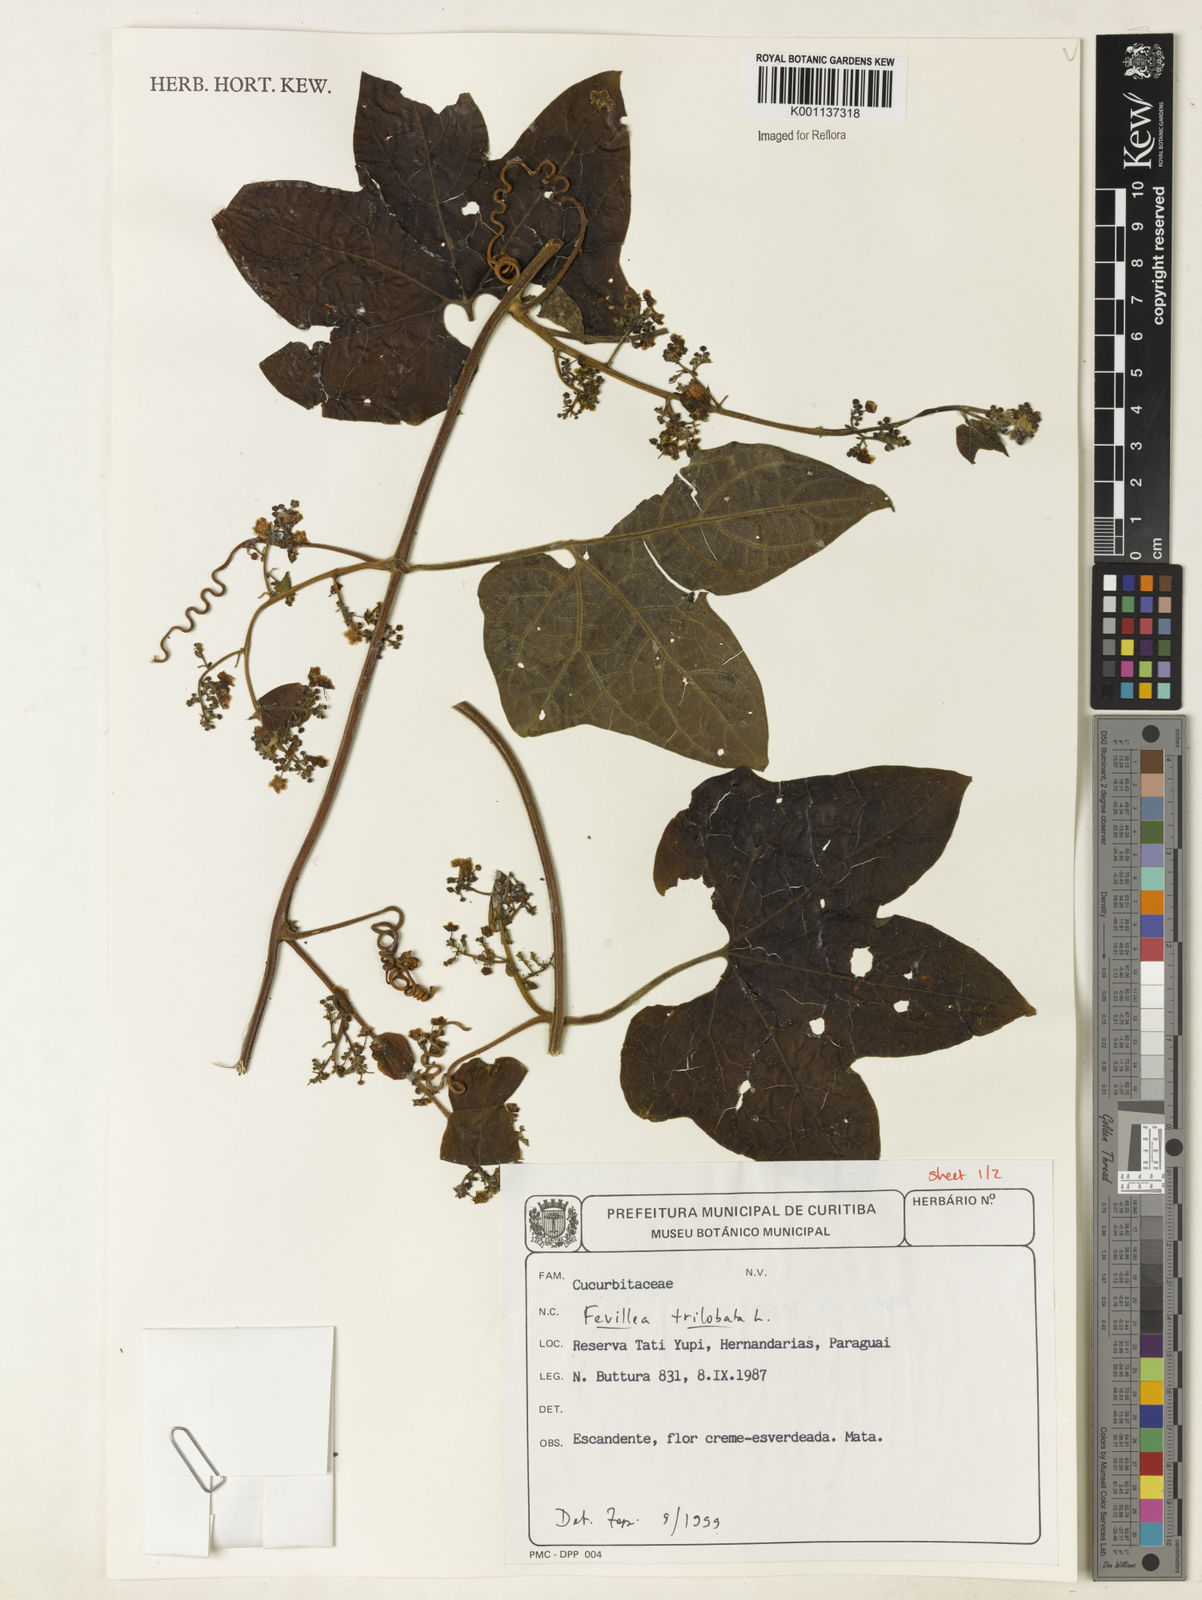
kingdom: Plantae
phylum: Tracheophyta
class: Magnoliopsida
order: Cucurbitales
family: Cucurbitaceae
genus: Fevillea
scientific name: Fevillea trilobata
